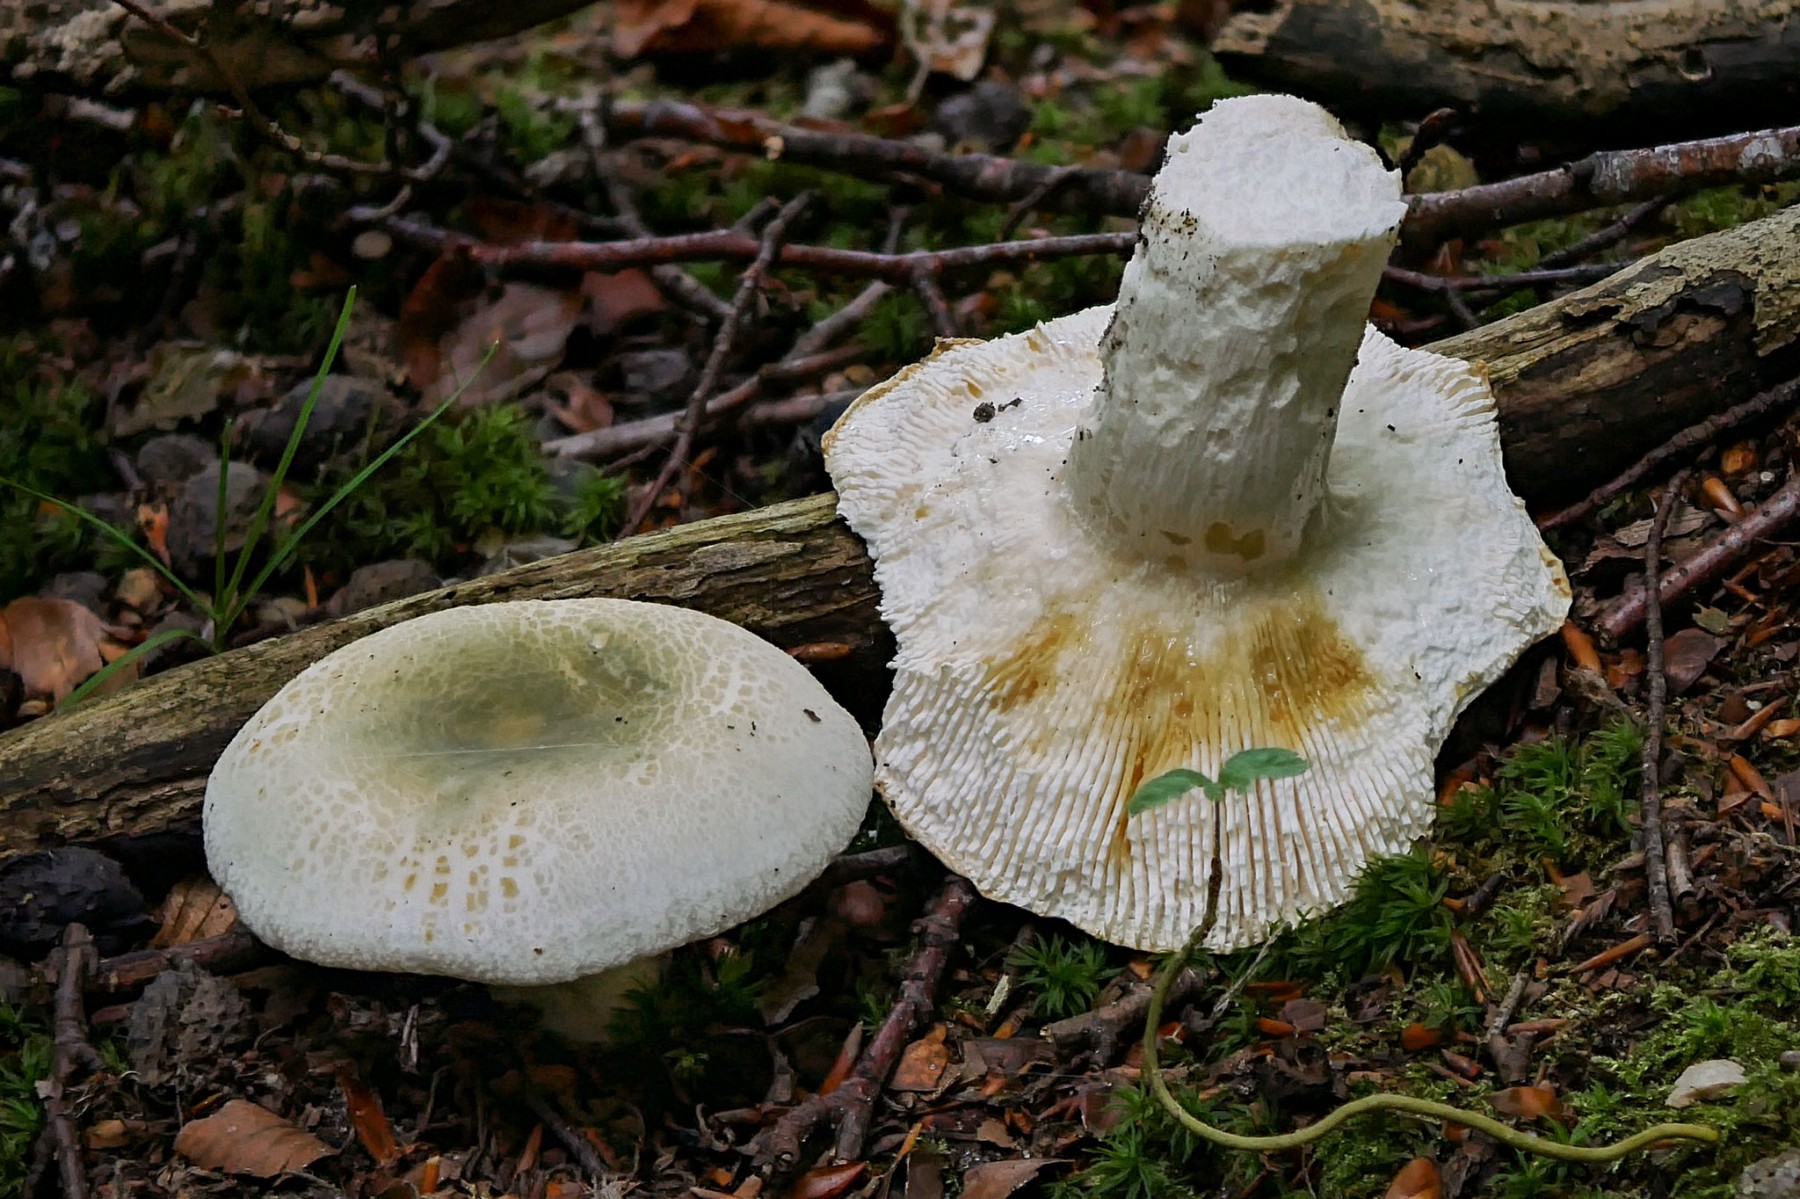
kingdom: Fungi
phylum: Basidiomycota
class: Agaricomycetes
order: Russulales
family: Russulaceae
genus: Russula
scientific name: Russula virescens
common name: spanskgrøn skørhat
